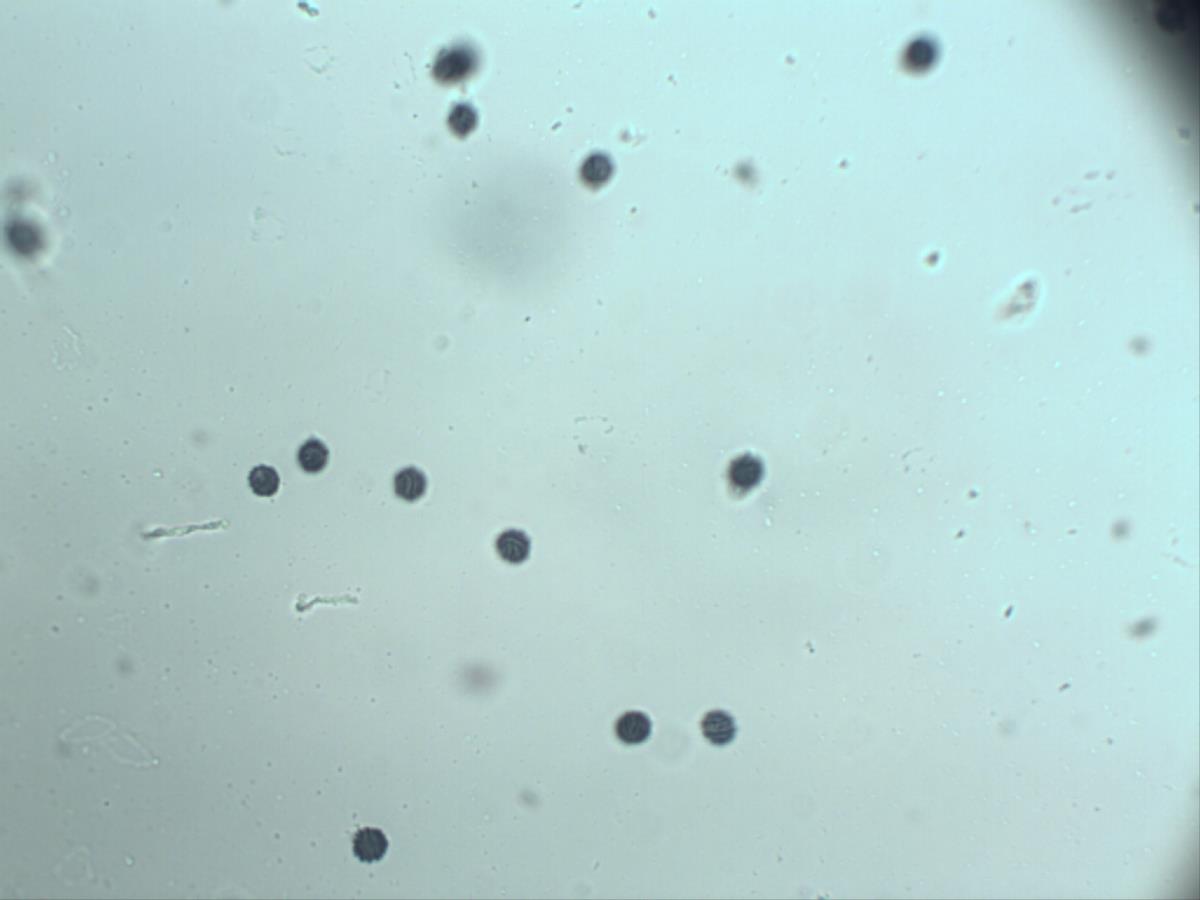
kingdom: Fungi
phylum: Basidiomycota
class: Agaricomycetes
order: Russulales
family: Russulaceae
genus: Lactarius
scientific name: Lactarius umerensis
